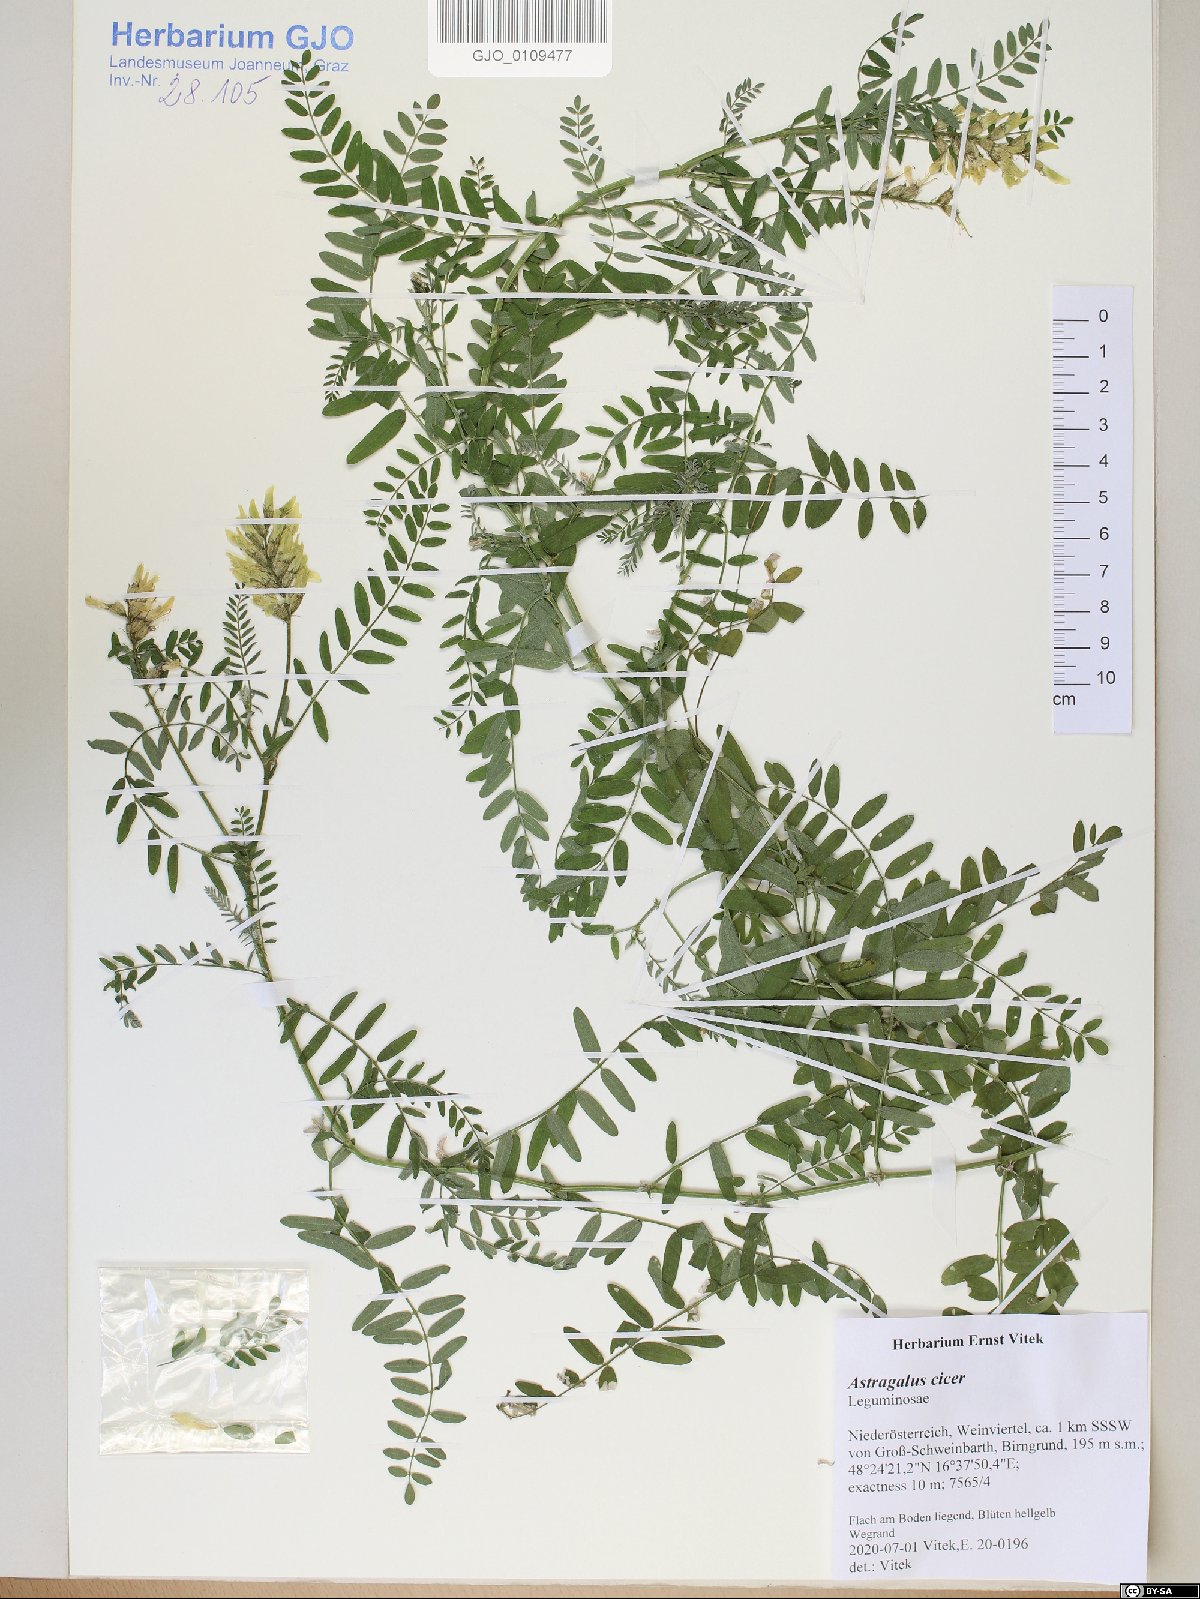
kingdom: Plantae
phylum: Tracheophyta
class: Magnoliopsida
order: Fabales
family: Fabaceae
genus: Astragalus
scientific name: Astragalus cicer
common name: Chick-pea milk-vetch
